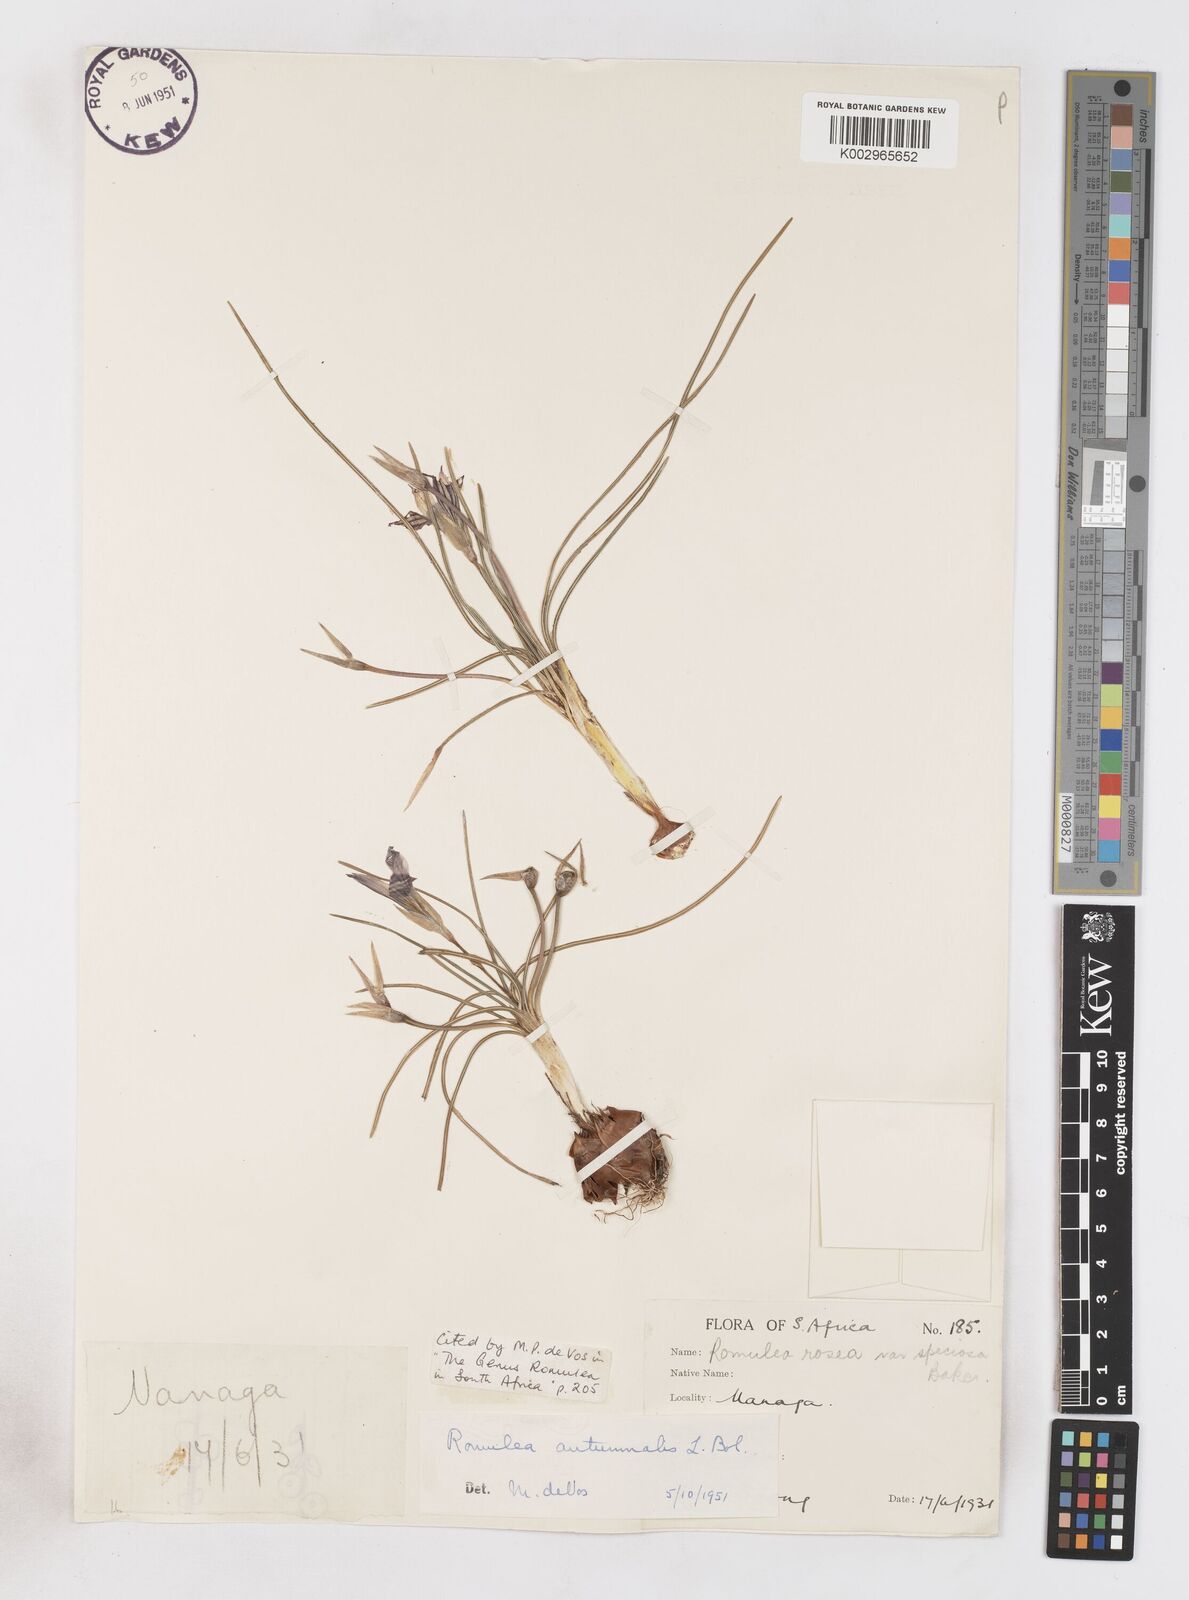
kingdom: Plantae
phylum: Tracheophyta
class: Liliopsida
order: Asparagales
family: Iridaceae
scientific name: Iridaceae
